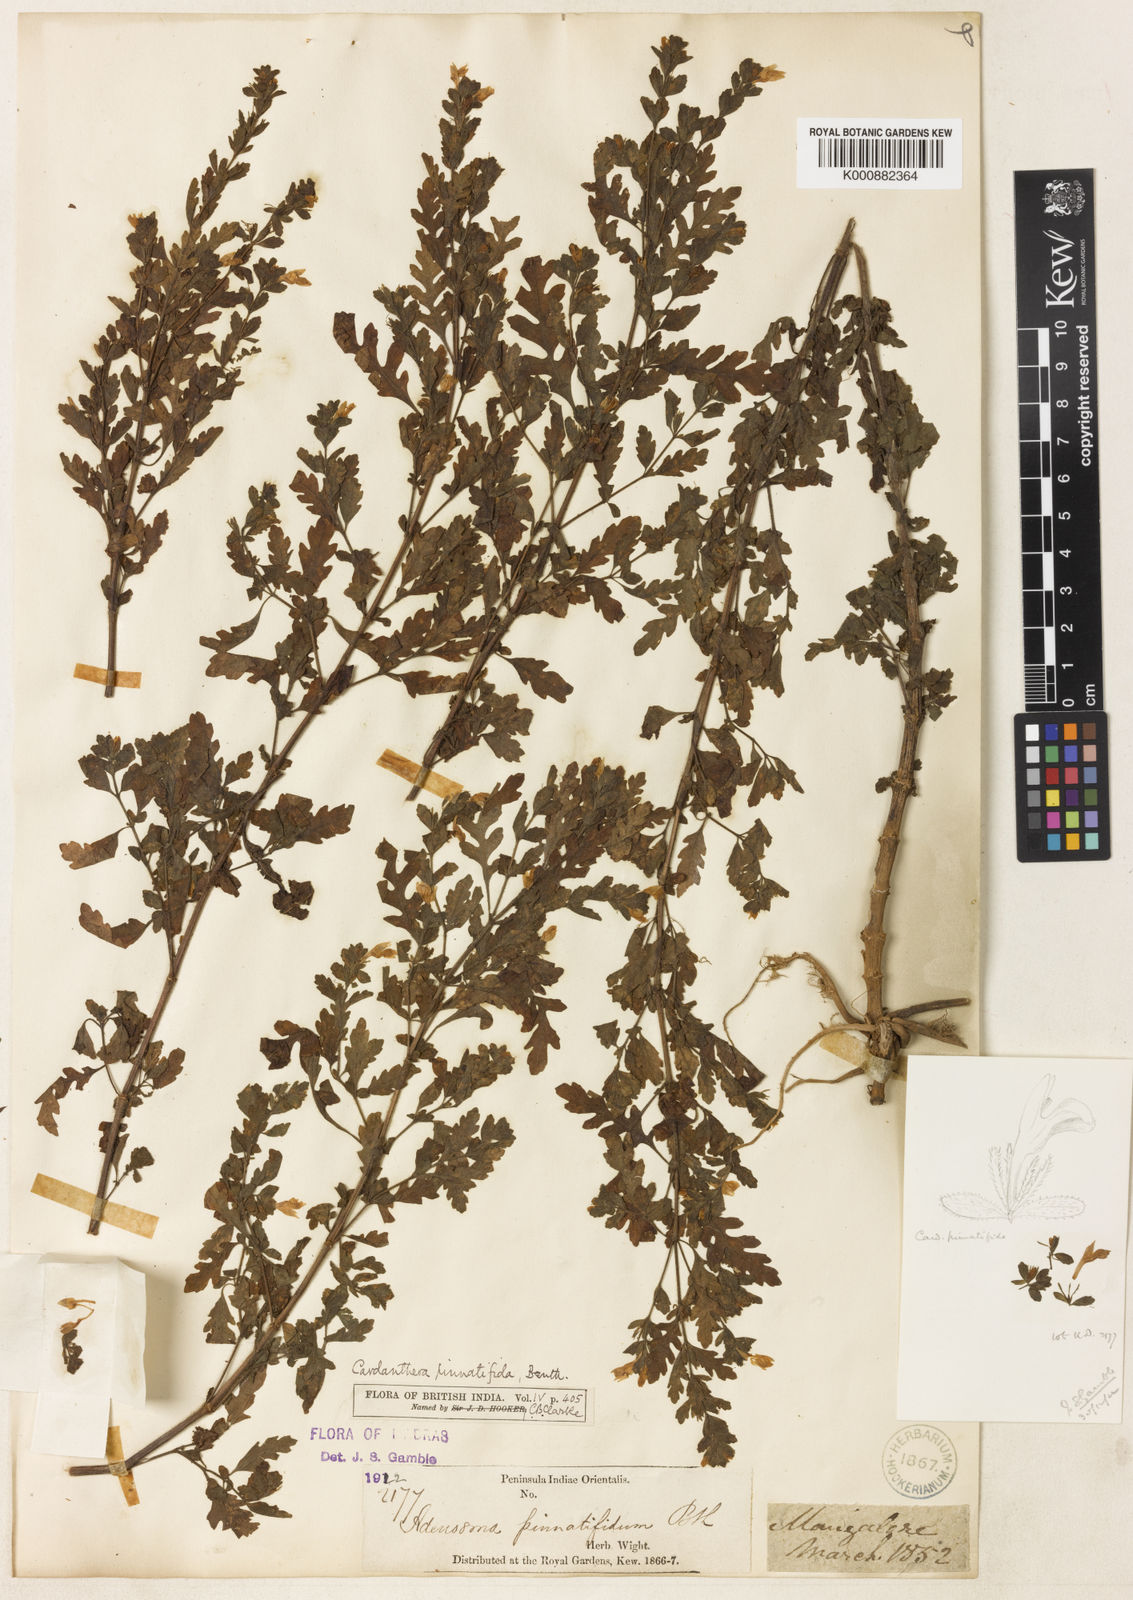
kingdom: Plantae
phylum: Tracheophyta
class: Magnoliopsida
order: Lamiales
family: Acanthaceae
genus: Hygrophila
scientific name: Hygrophila pinnatifida
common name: Indian swampweed
